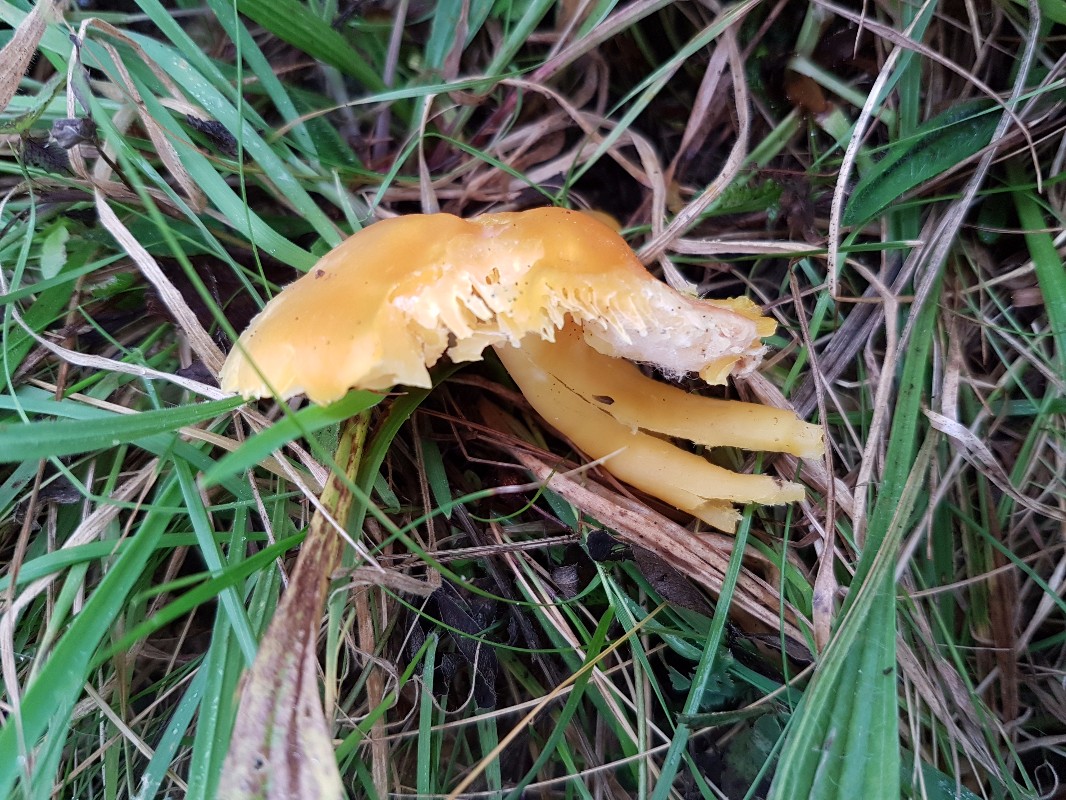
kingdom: Fungi
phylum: Basidiomycota
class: Agaricomycetes
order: Agaricales
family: Hygrophoraceae
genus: Hygrocybe
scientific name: Hygrocybe quieta
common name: tæge-vokshat
